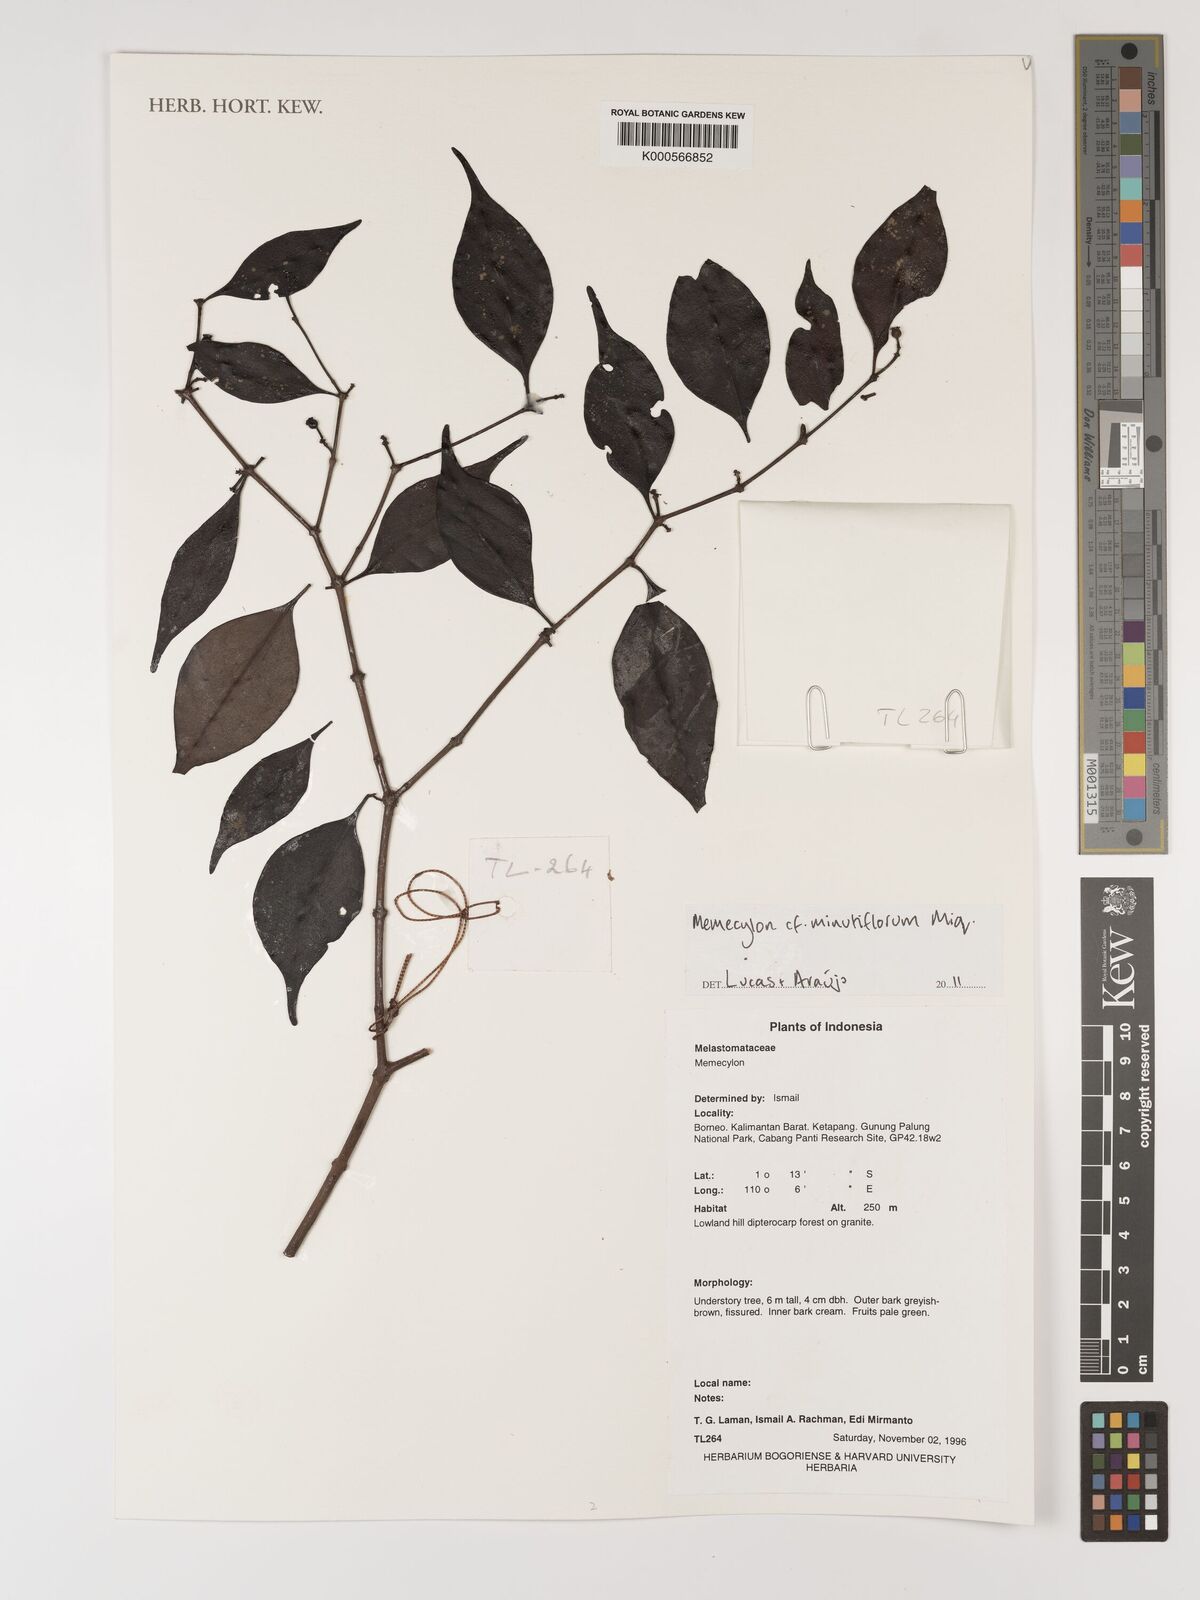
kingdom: Plantae
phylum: Tracheophyta
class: Magnoliopsida
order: Myrtales
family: Melastomataceae
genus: Memecylon
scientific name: Memecylon minutiflorum
